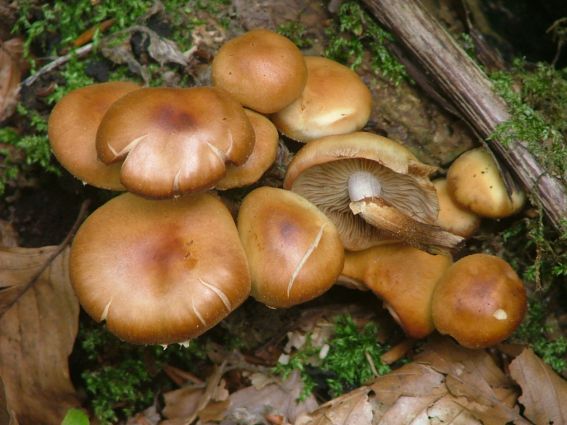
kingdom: Fungi
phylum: Basidiomycota
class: Agaricomycetes
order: Agaricales
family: Strophariaceae
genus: Kuehneromyces
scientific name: Kuehneromyces mutabilis
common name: foranderlig skælhat
